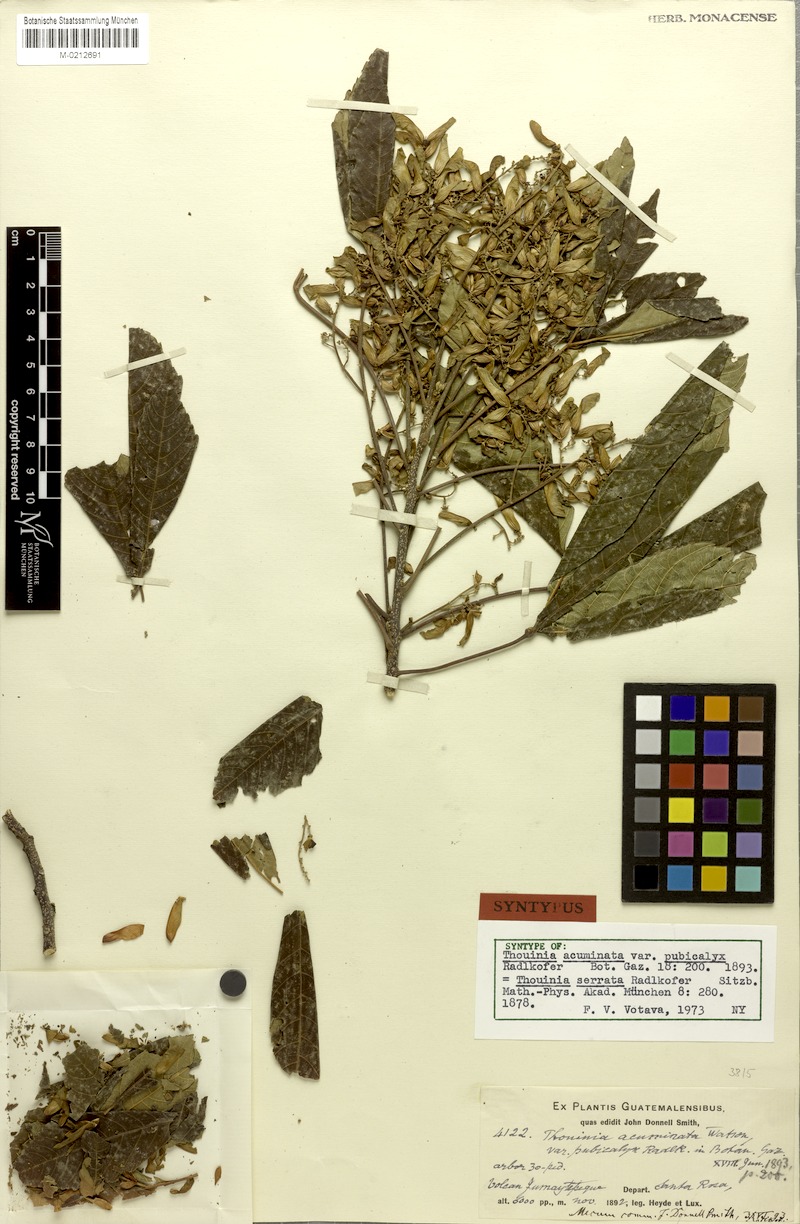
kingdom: Plantae
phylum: Tracheophyta
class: Magnoliopsida
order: Sapindales
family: Sapindaceae
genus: Thouinia
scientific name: Thouinia serrata
